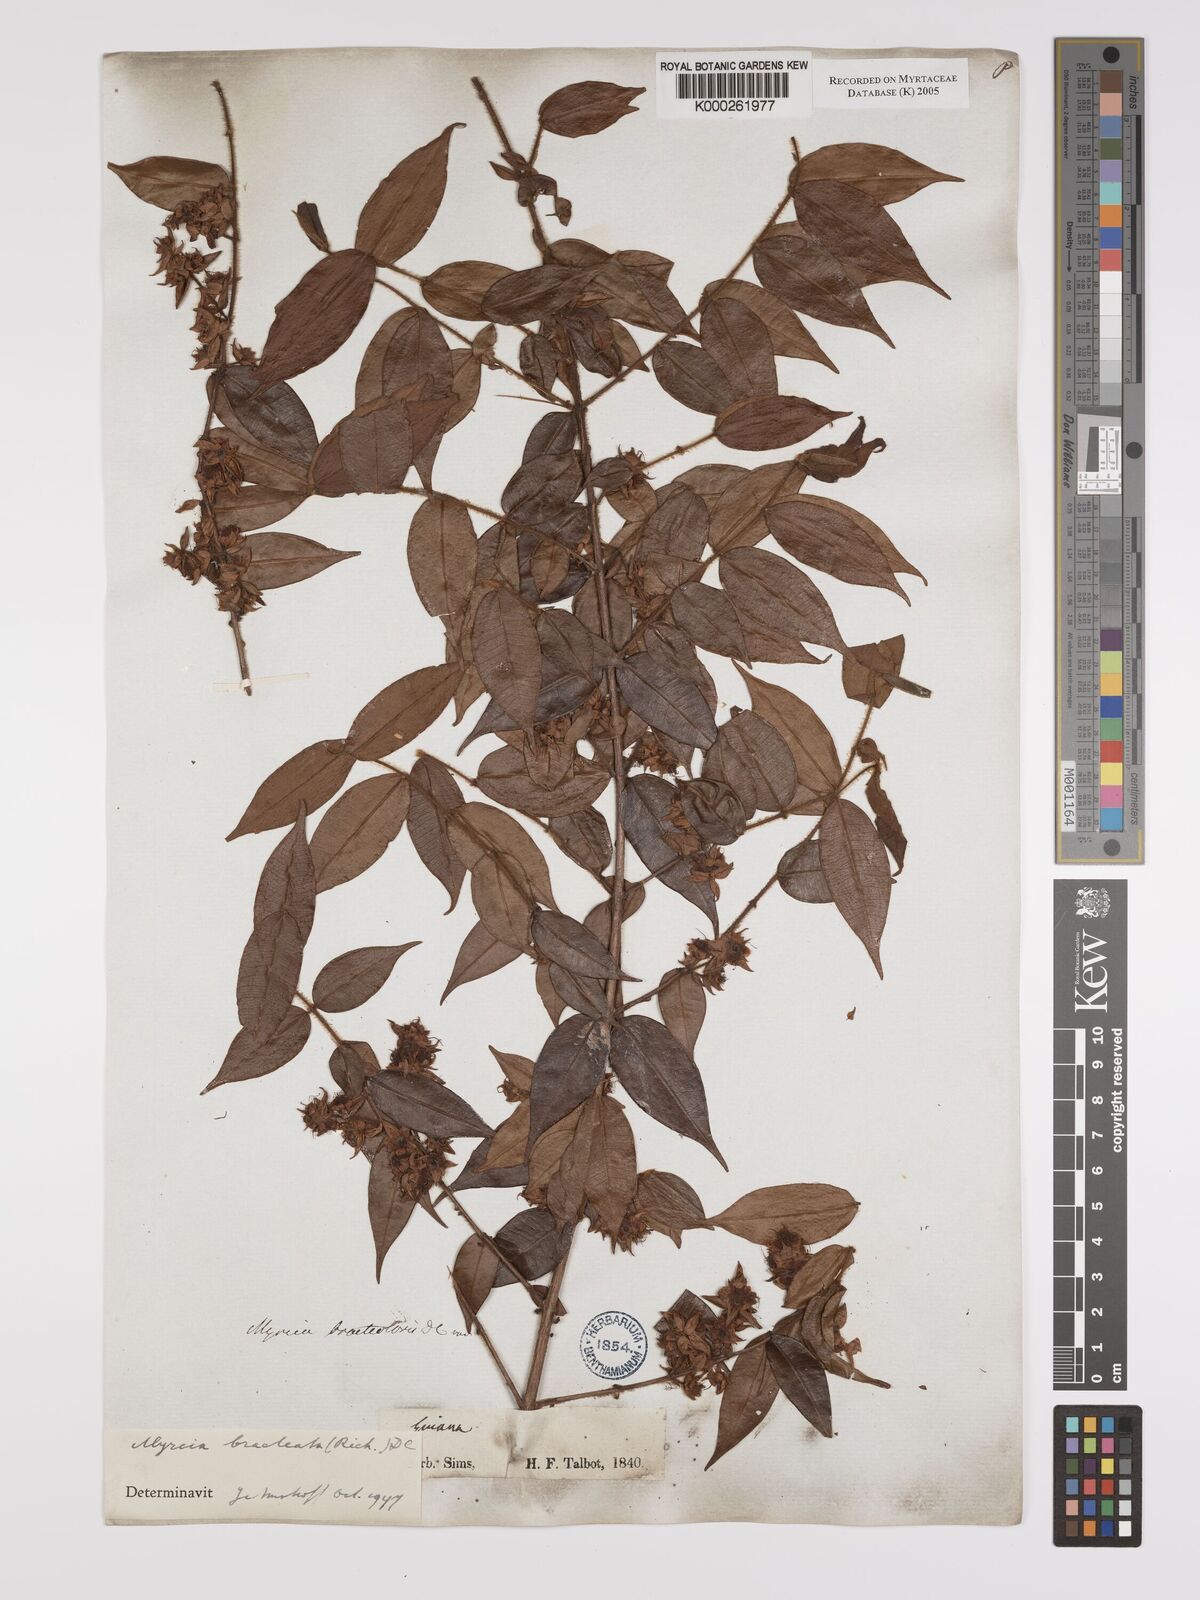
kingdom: Plantae
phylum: Tracheophyta
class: Magnoliopsida
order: Myrtales
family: Myrtaceae
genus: Myrcia
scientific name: Myrcia bracteata
